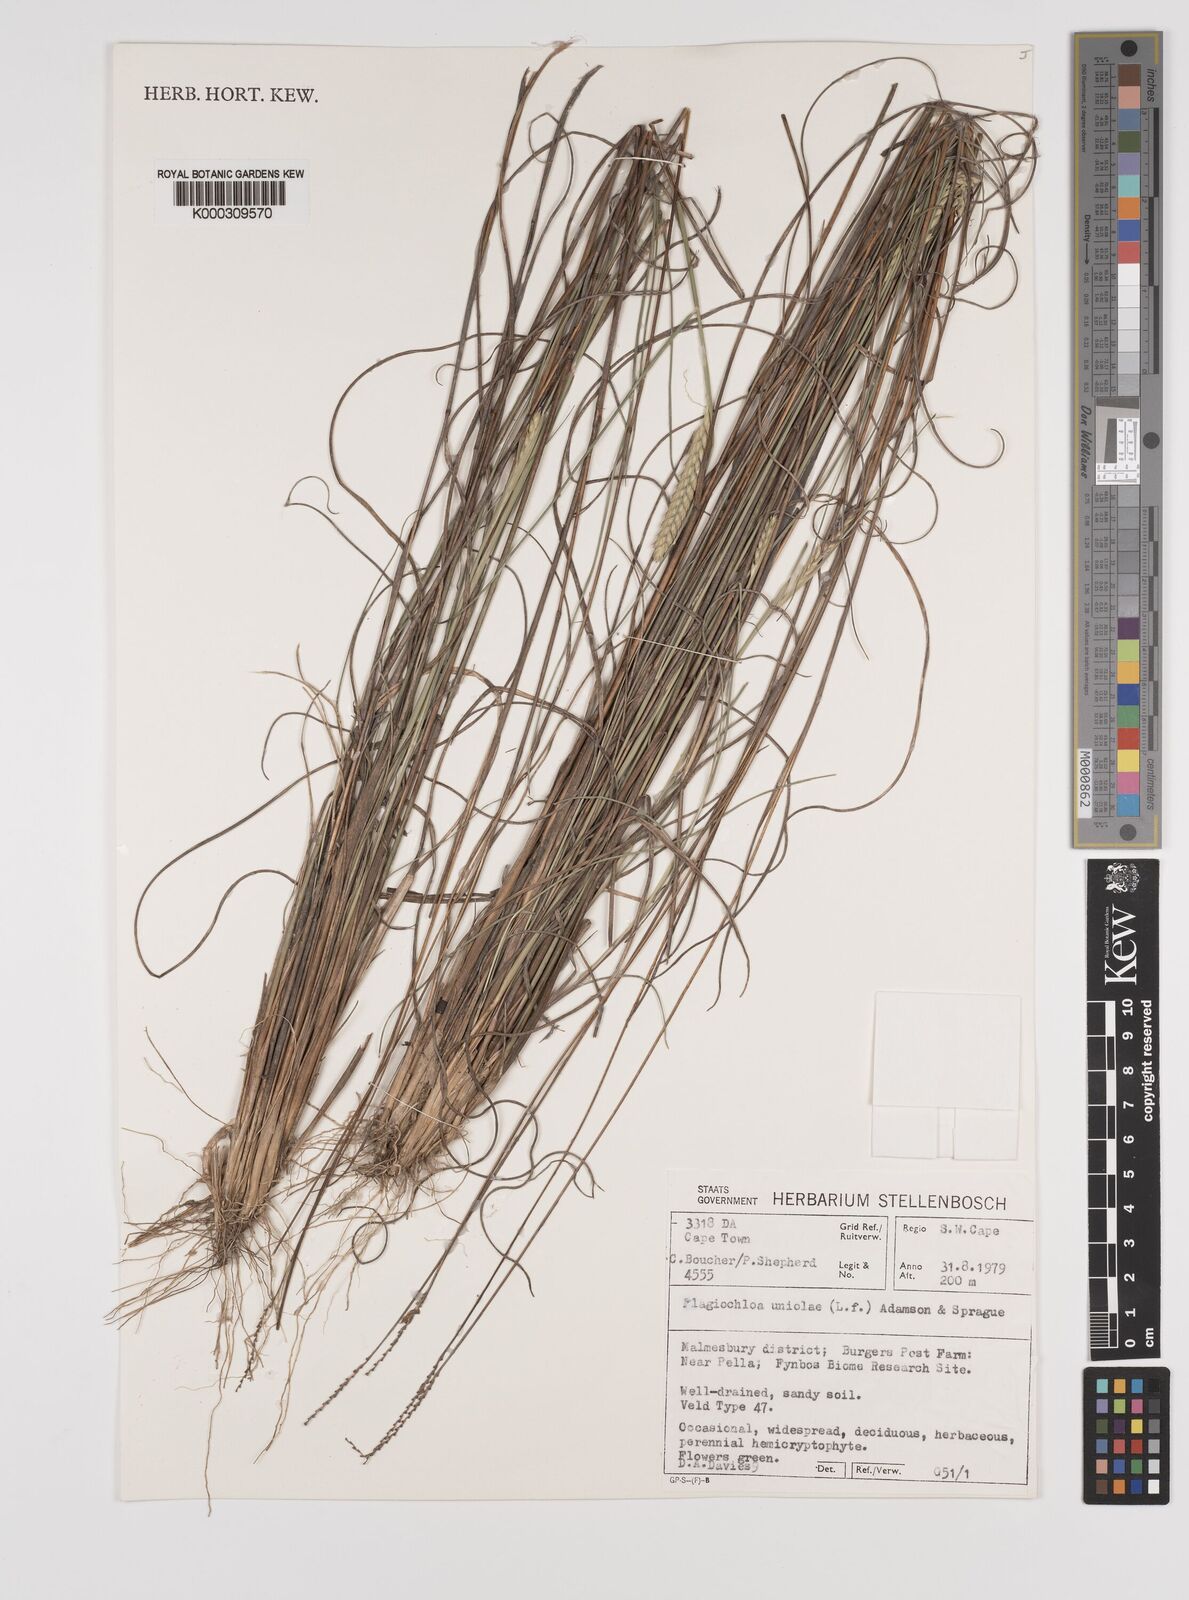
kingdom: Plantae
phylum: Tracheophyta
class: Liliopsida
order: Poales
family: Poaceae
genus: Tribolium
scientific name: Tribolium amplexum
